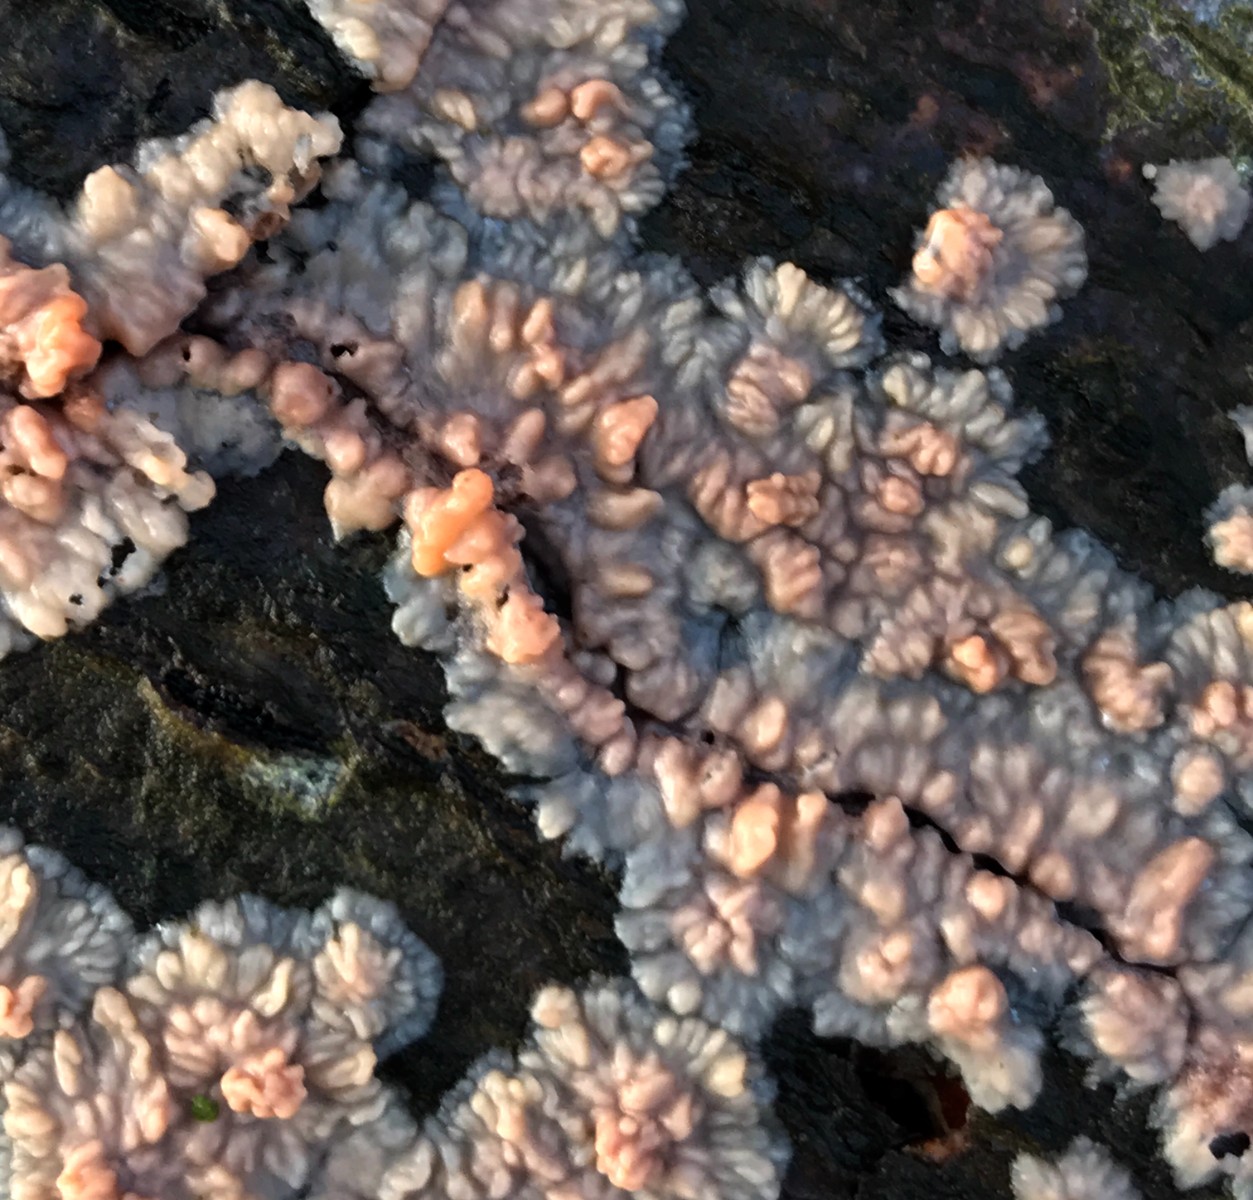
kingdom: Fungi
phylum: Basidiomycota
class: Agaricomycetes
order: Polyporales
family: Meruliaceae
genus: Phlebia
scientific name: Phlebia radiata
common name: stråle-åresvamp
